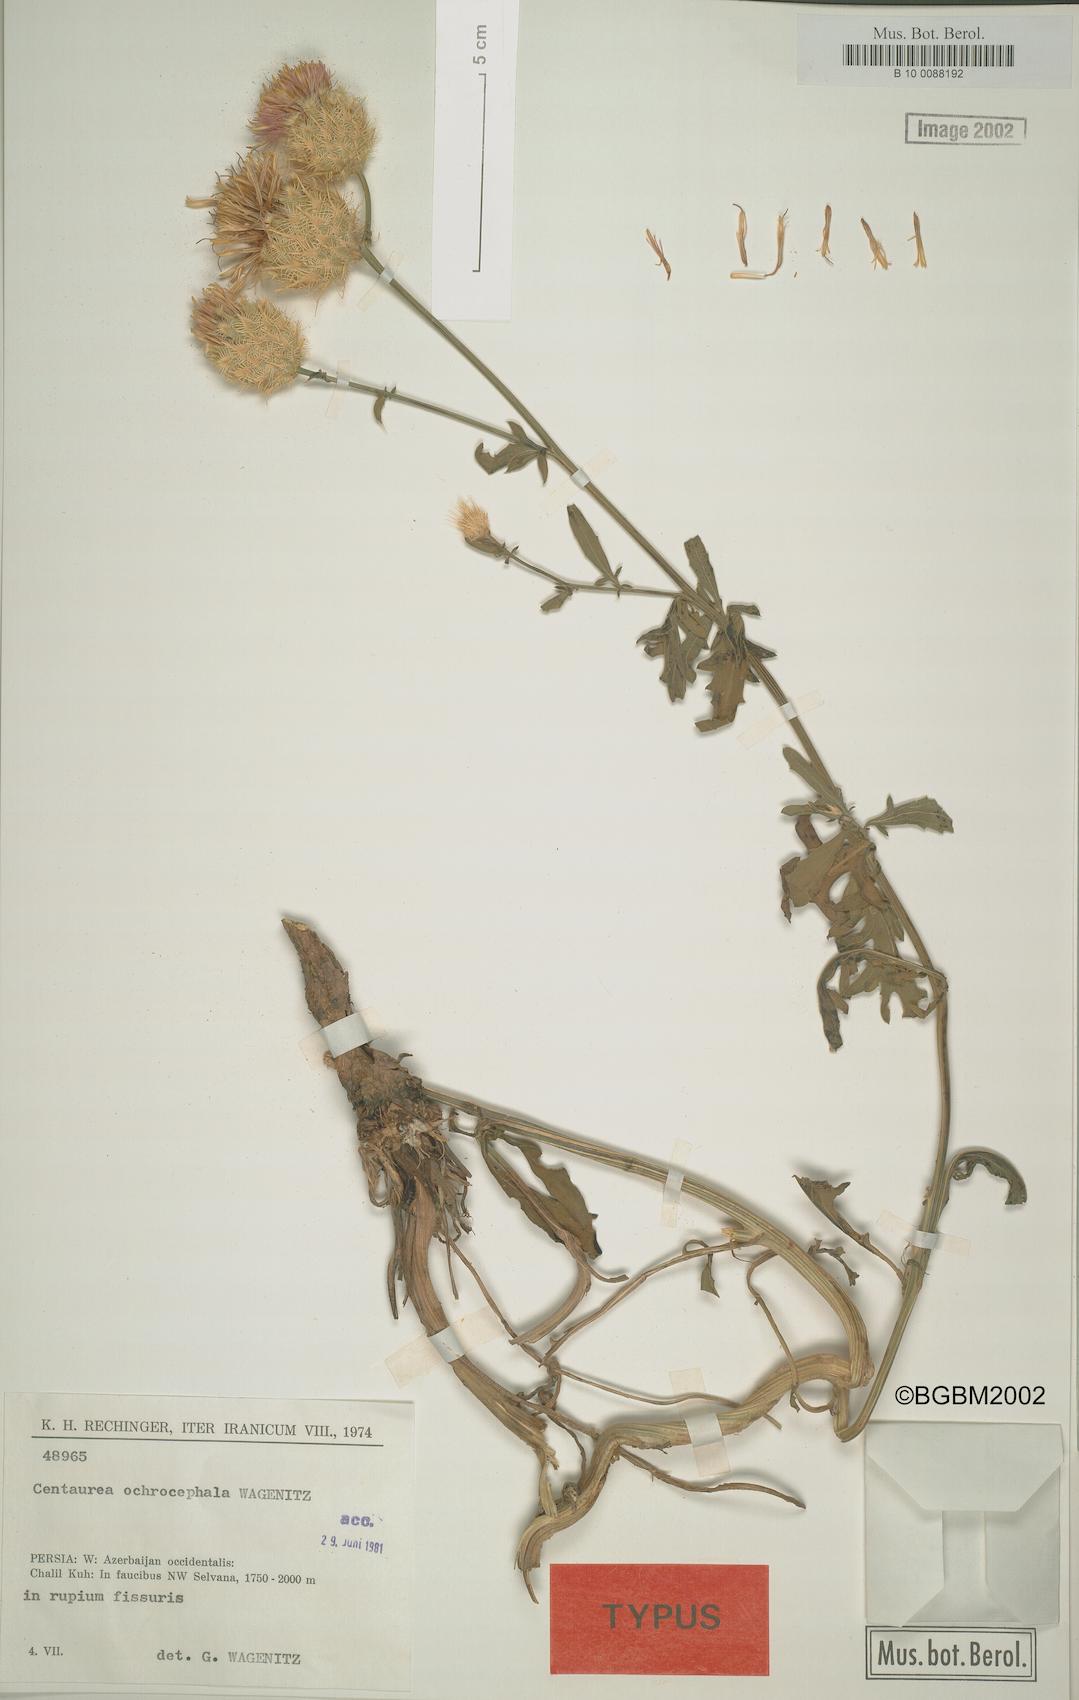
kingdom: Plantae
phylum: Tracheophyta
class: Magnoliopsida
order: Asterales
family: Asteraceae
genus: Centaurea
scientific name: Centaurea ochrocephala
